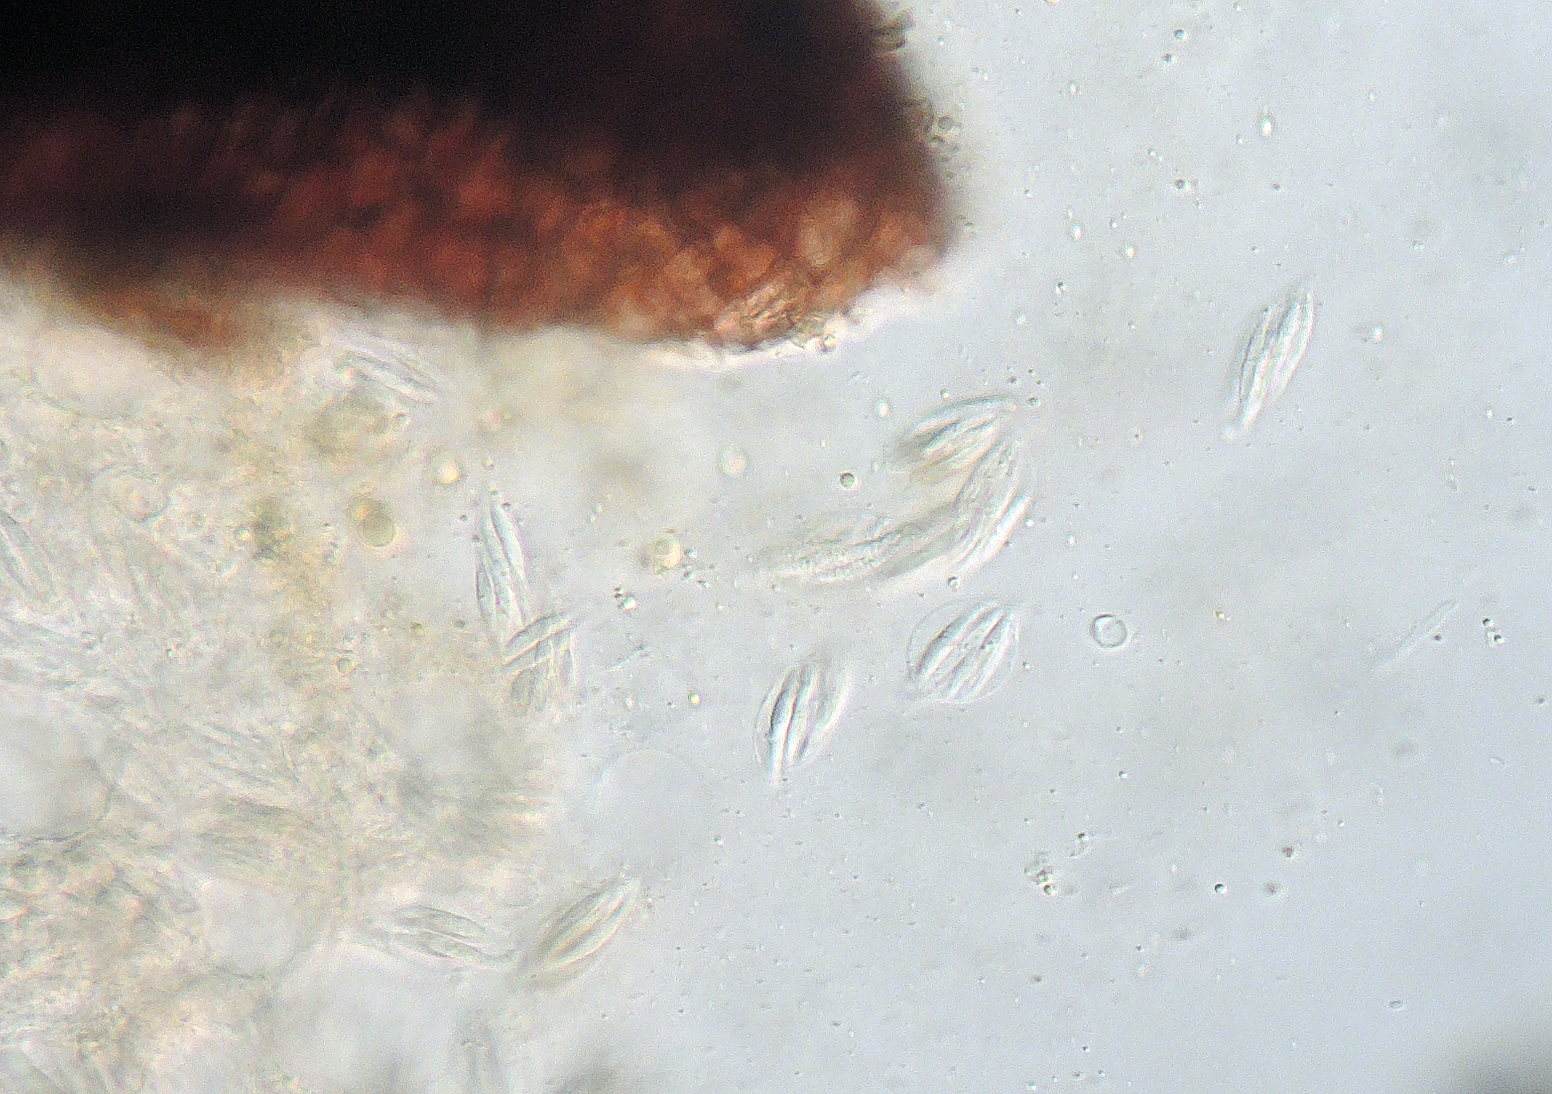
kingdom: Fungi
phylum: Ascomycota
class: Sordariomycetes
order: Diaporthales
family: Gnomoniaceae
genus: Ophiognomonia
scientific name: Ophiognomonia ischnostyla
